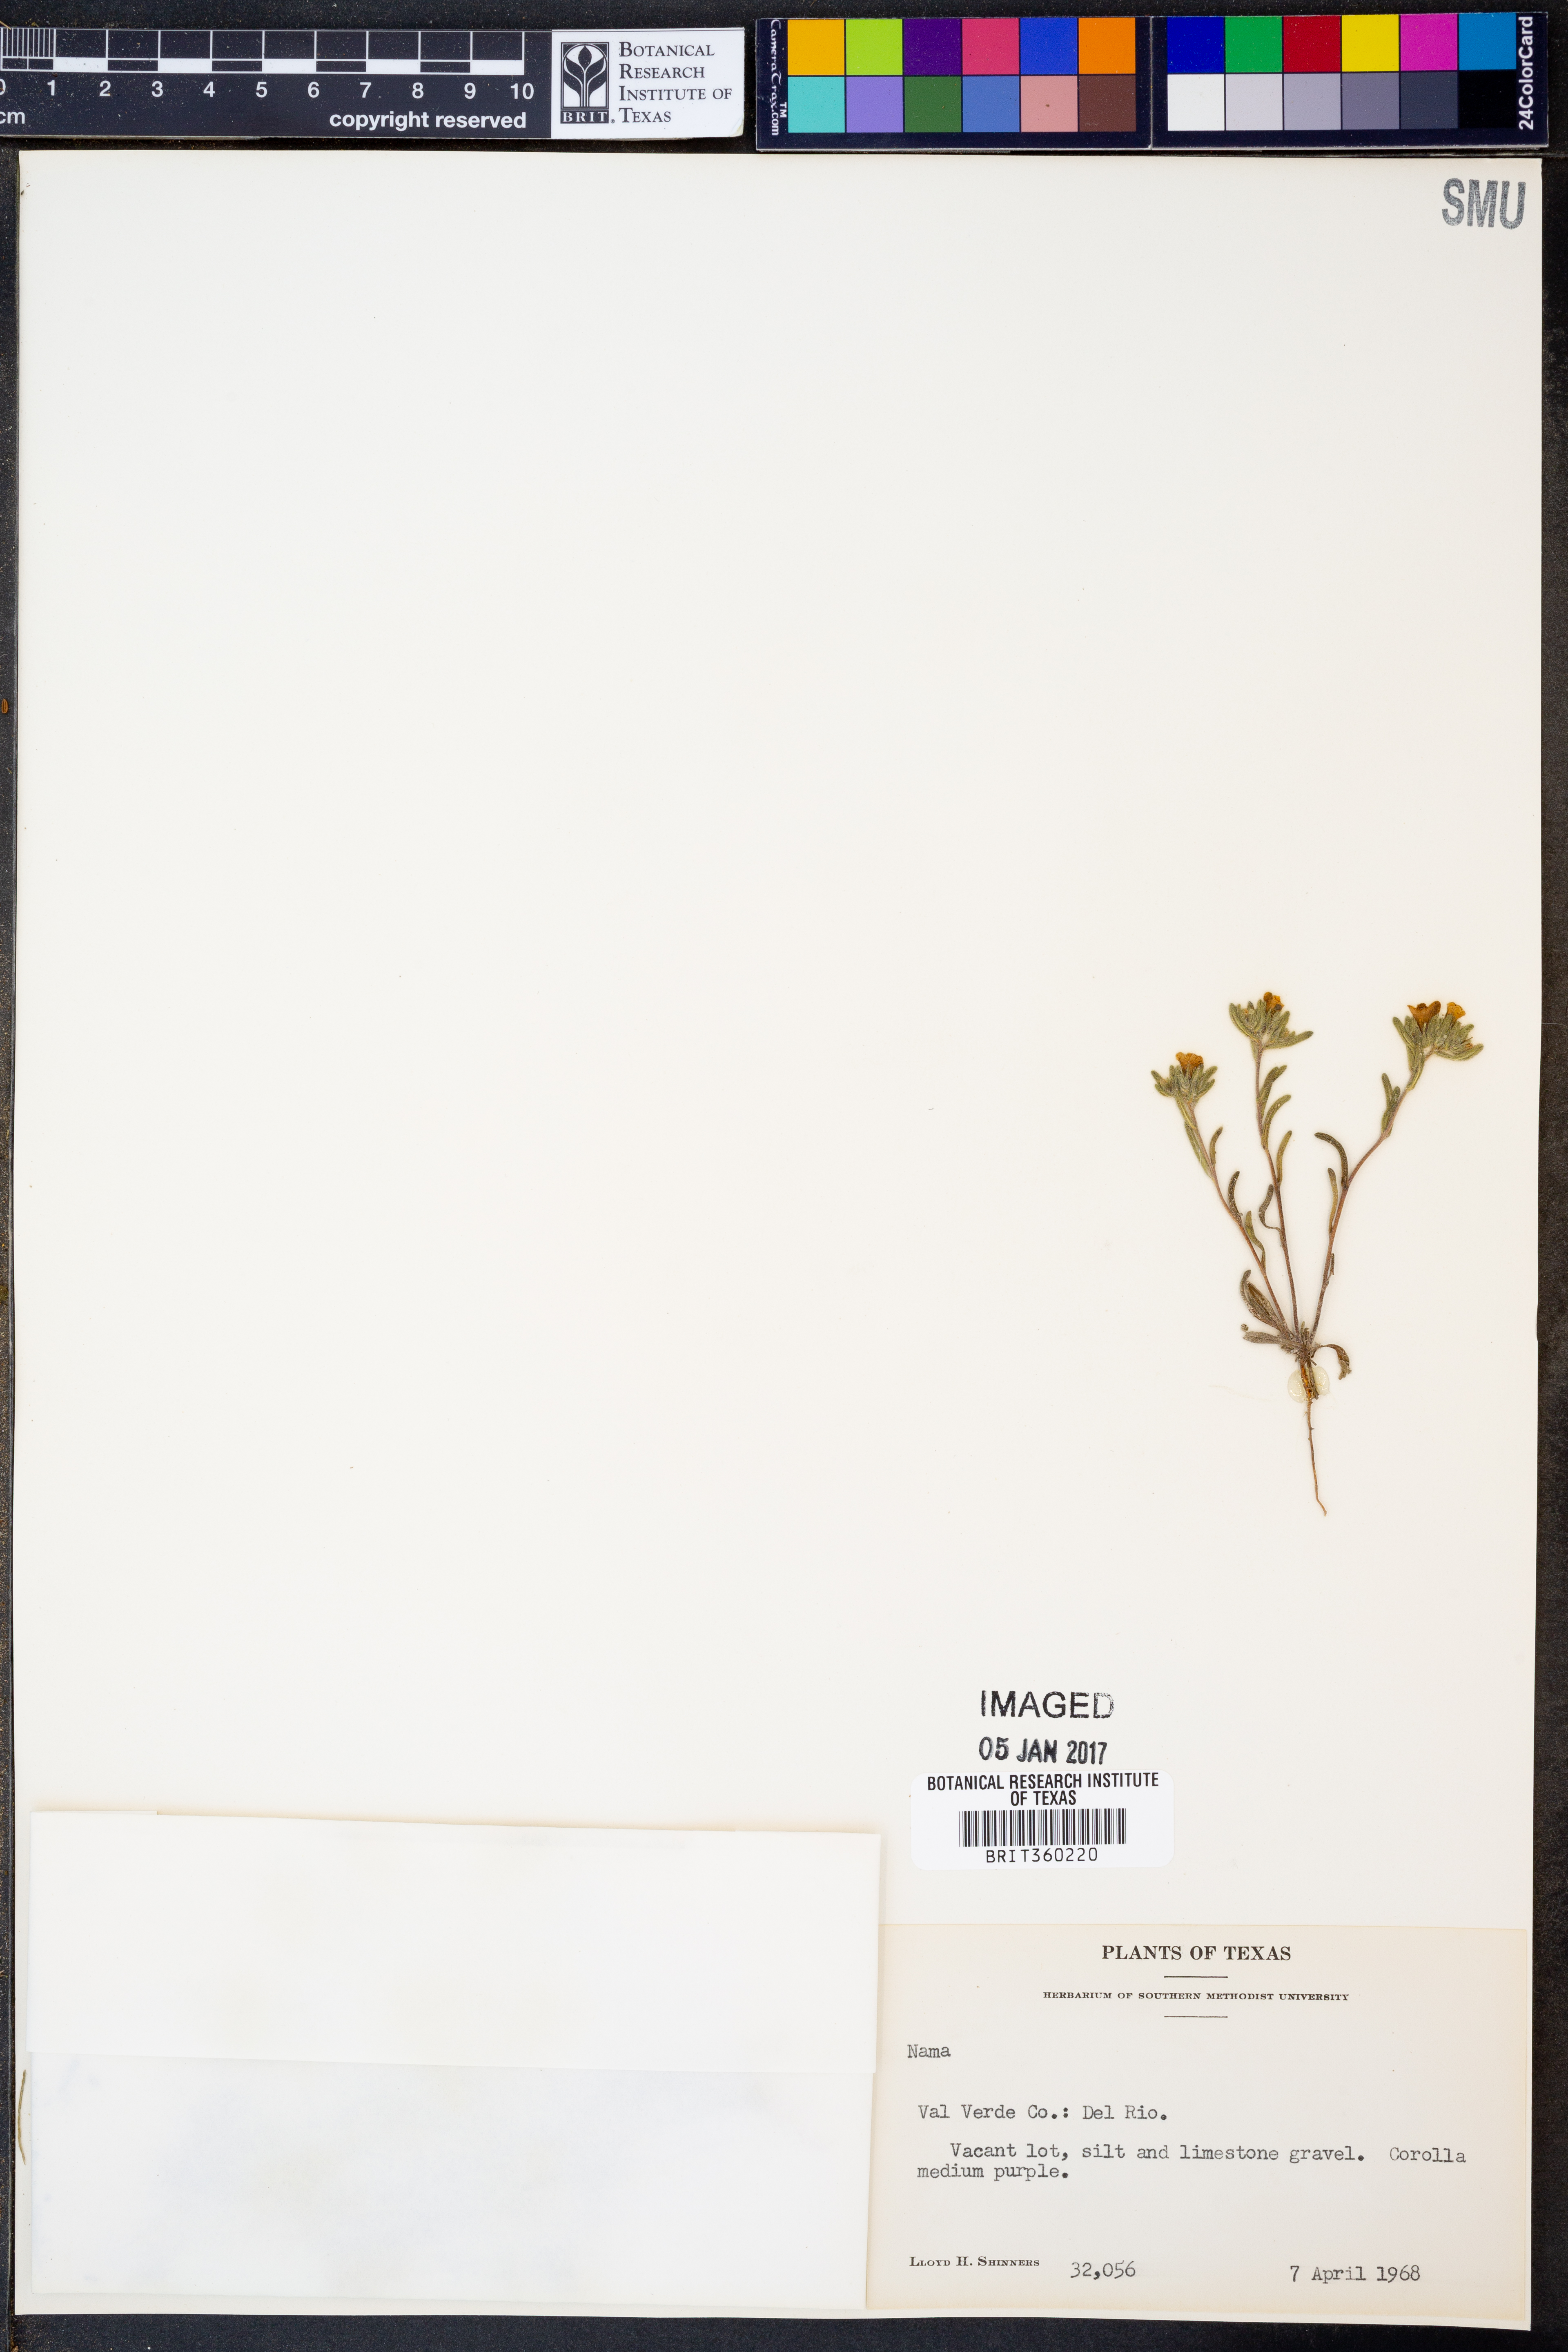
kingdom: Plantae
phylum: Tracheophyta
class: Magnoliopsida
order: Boraginales
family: Namaceae
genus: Nama
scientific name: Nama
